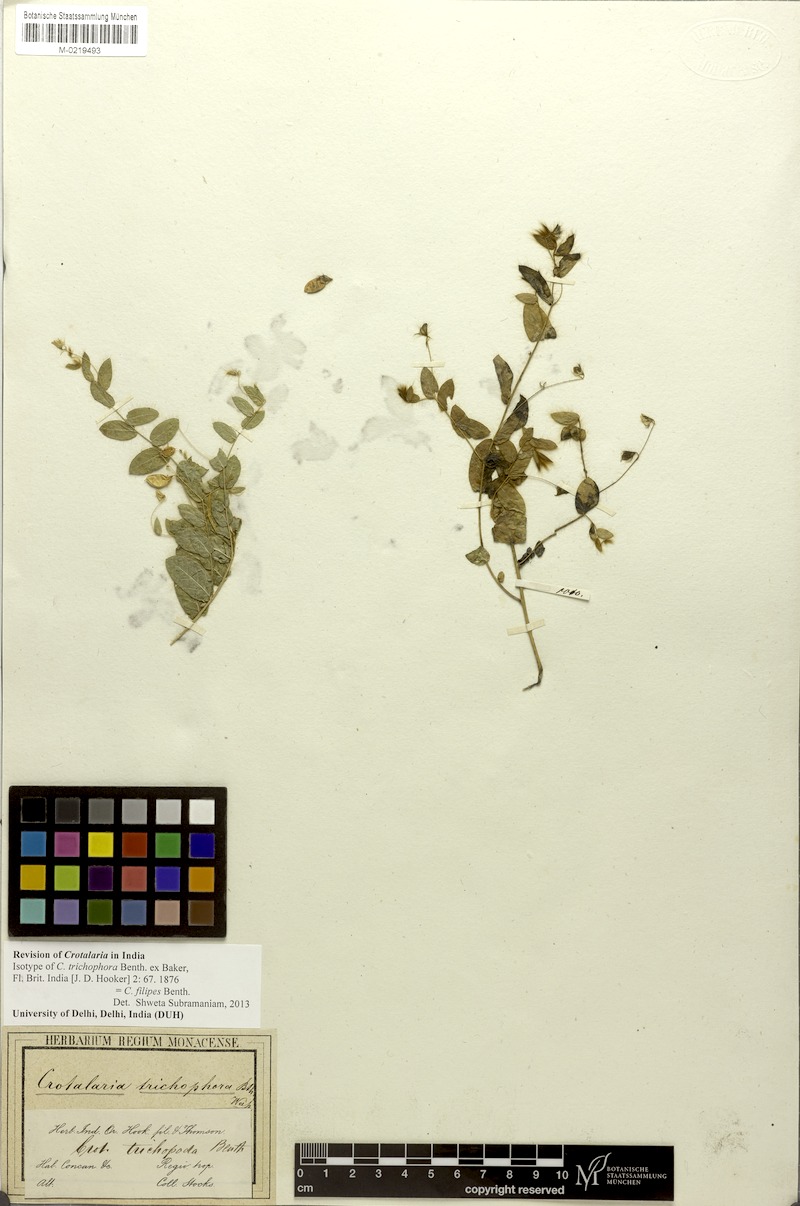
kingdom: Plantae
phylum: Tracheophyta
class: Magnoliopsida
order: Fabales
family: Fabaceae
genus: Crotalaria
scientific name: Crotalaria filipes
